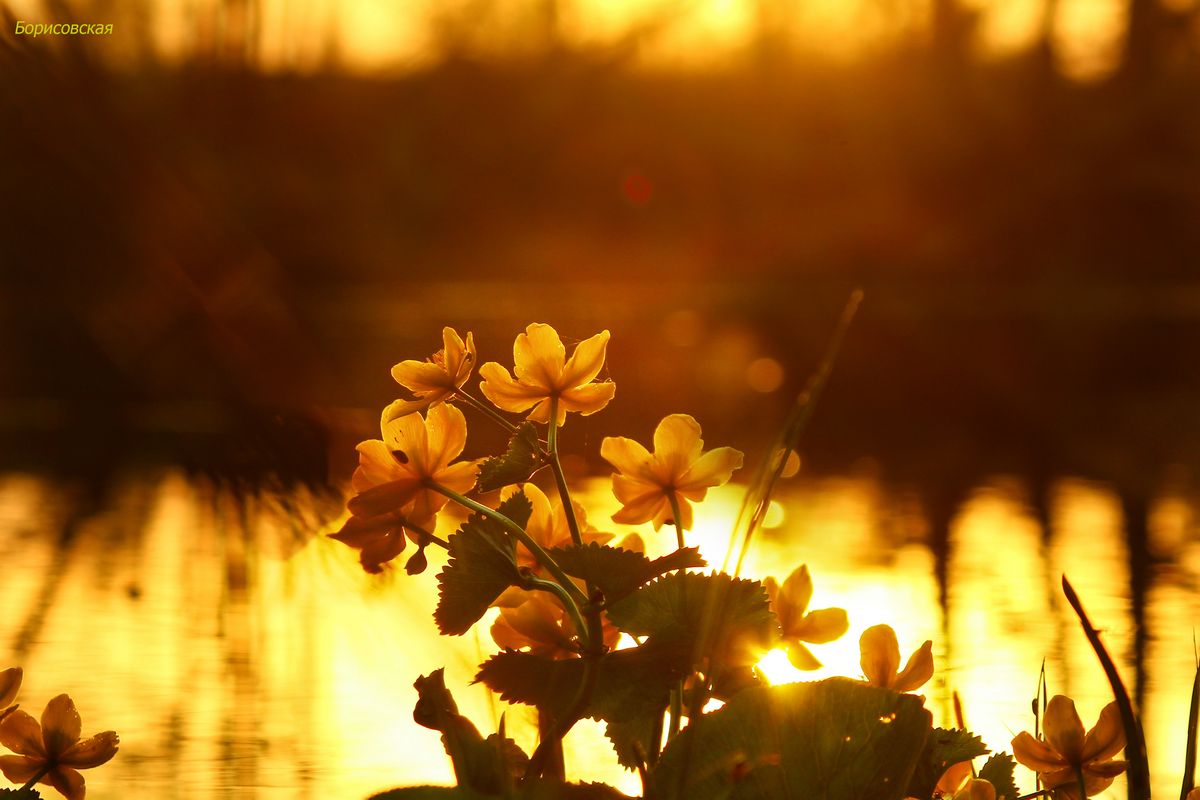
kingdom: Plantae
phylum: Tracheophyta
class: Magnoliopsida
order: Ranunculales
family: Ranunculaceae
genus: Caltha
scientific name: Caltha palustris
